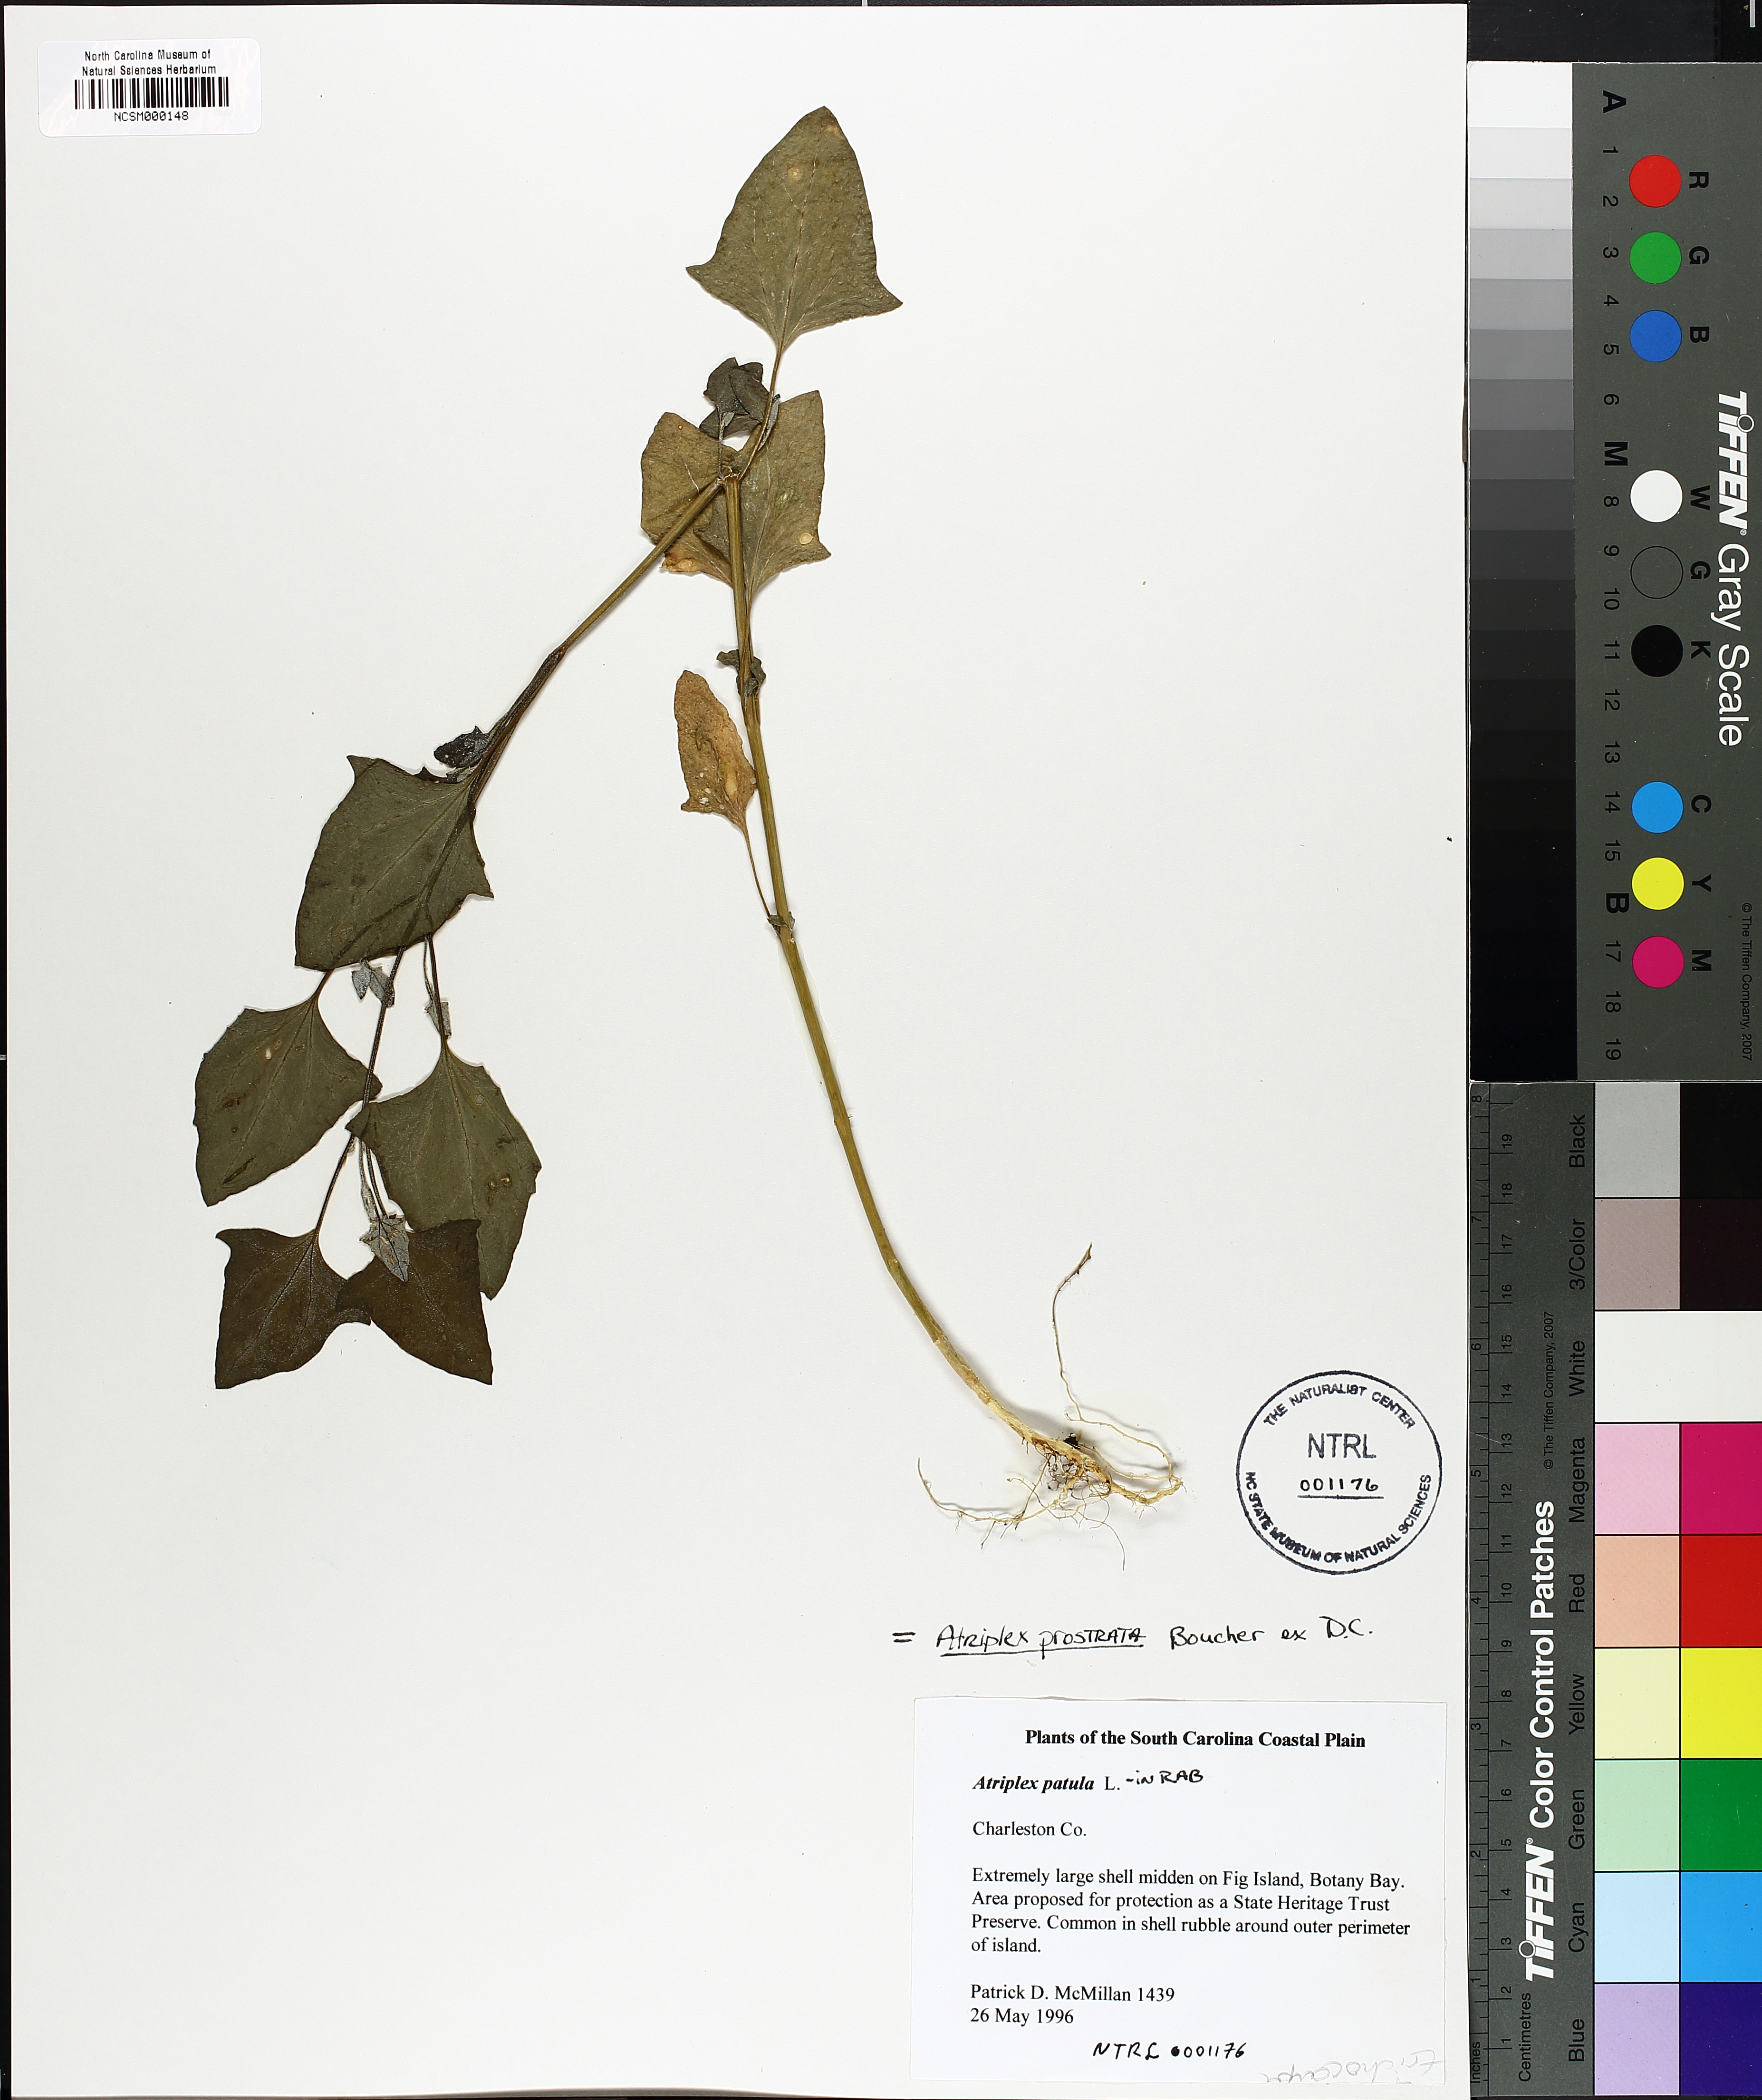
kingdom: Plantae
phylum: Tracheophyta
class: Magnoliopsida
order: Caryophyllales
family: Amaranthaceae
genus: Atriplex
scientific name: Atriplex patula
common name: Common orache
